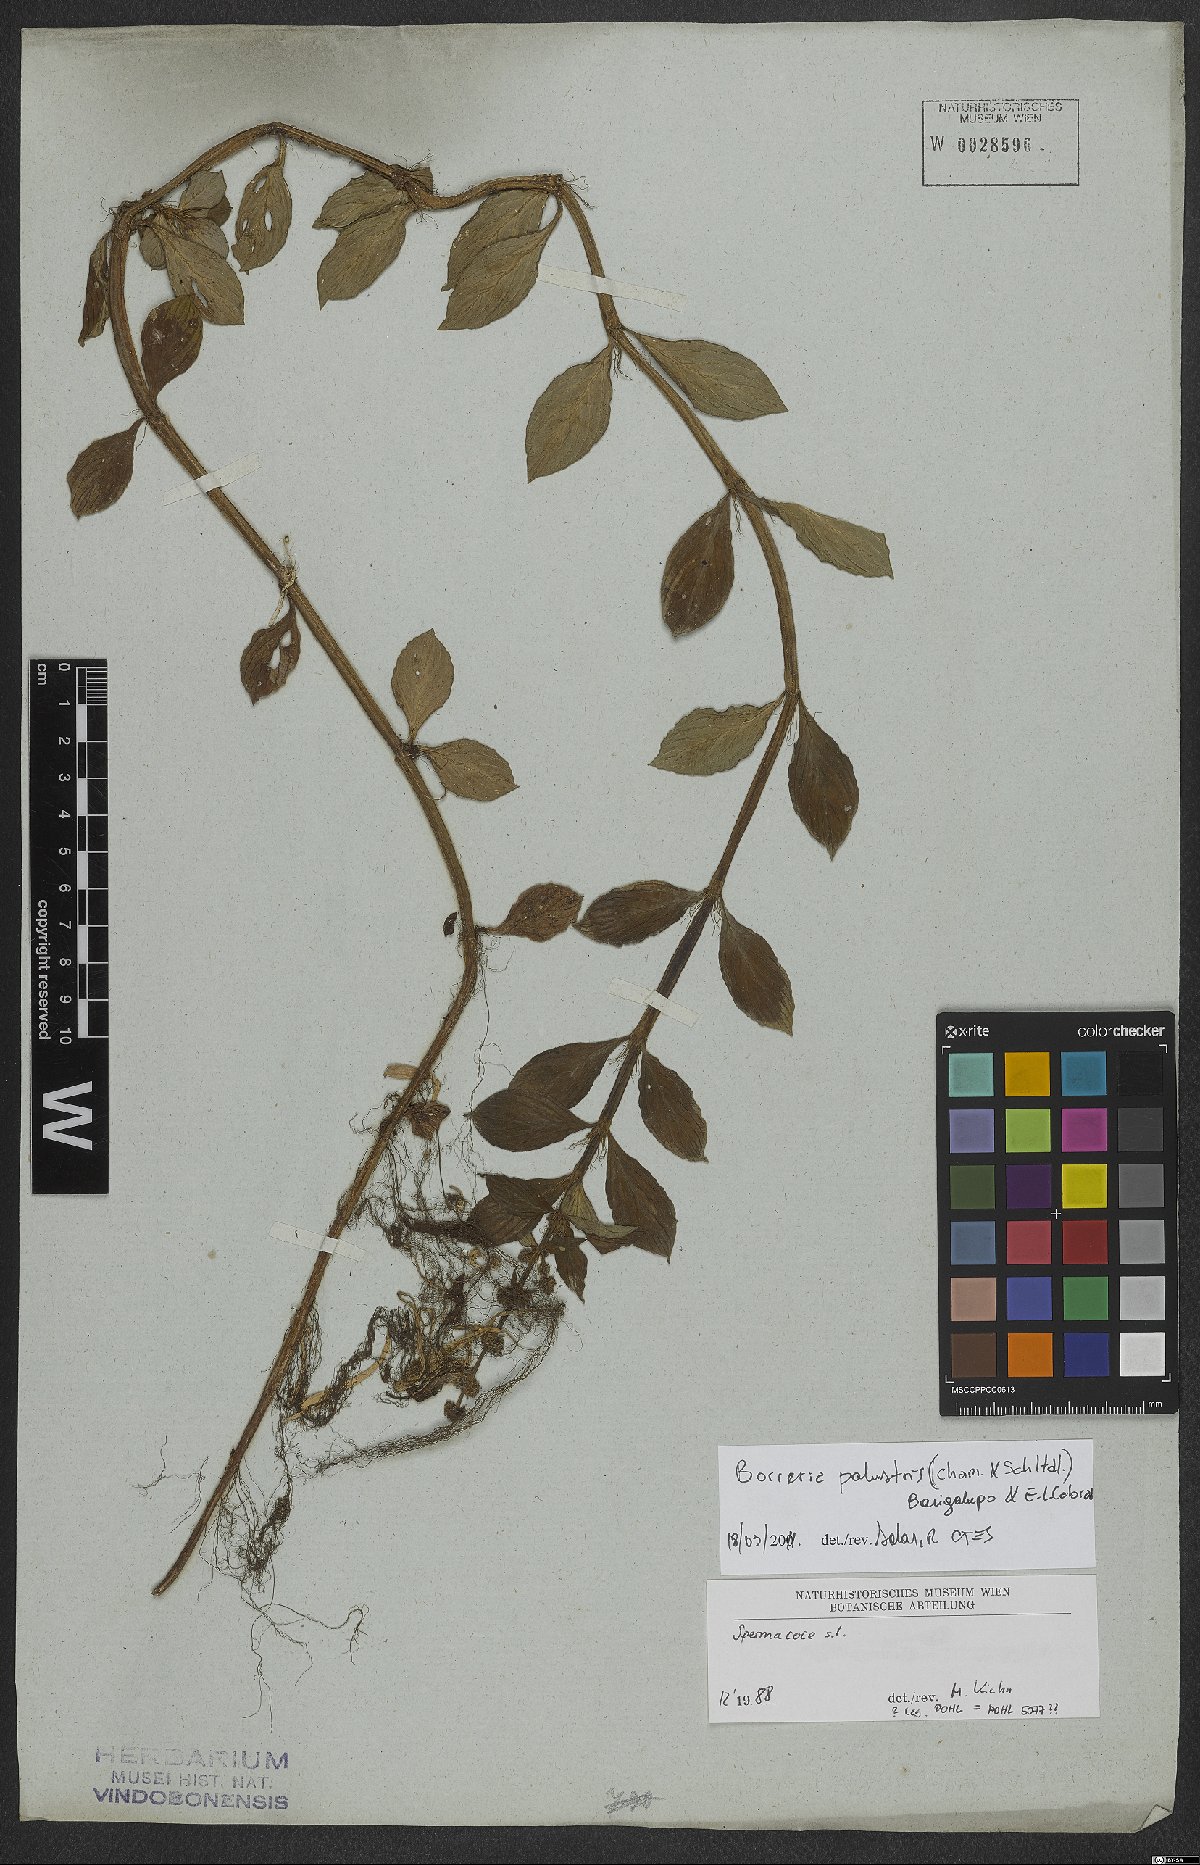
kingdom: Plantae
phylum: Tracheophyta
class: Magnoliopsida
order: Gentianales
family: Rubiaceae
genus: Galianthe
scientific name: Galianthe palustris
